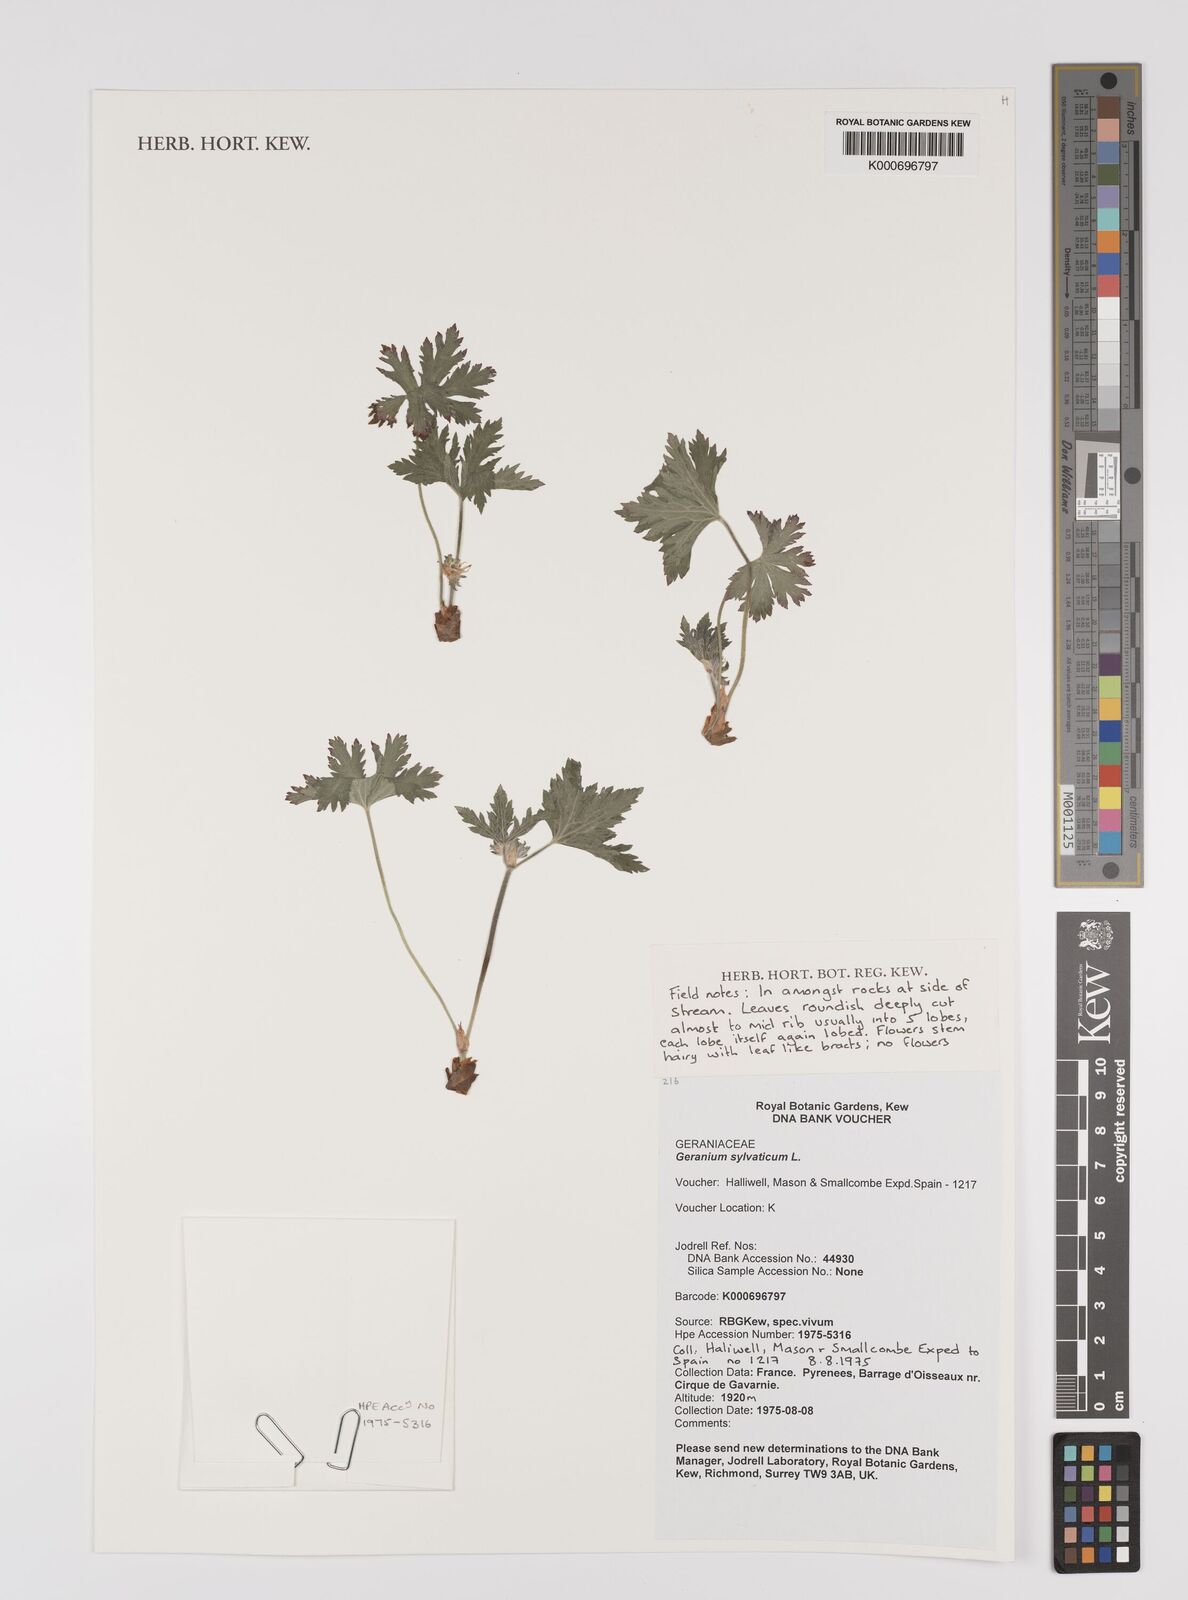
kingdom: Plantae
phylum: Tracheophyta
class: Magnoliopsida
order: Geraniales
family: Geraniaceae
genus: Geranium
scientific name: Geranium sylvaticum
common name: Wood crane's-bill
